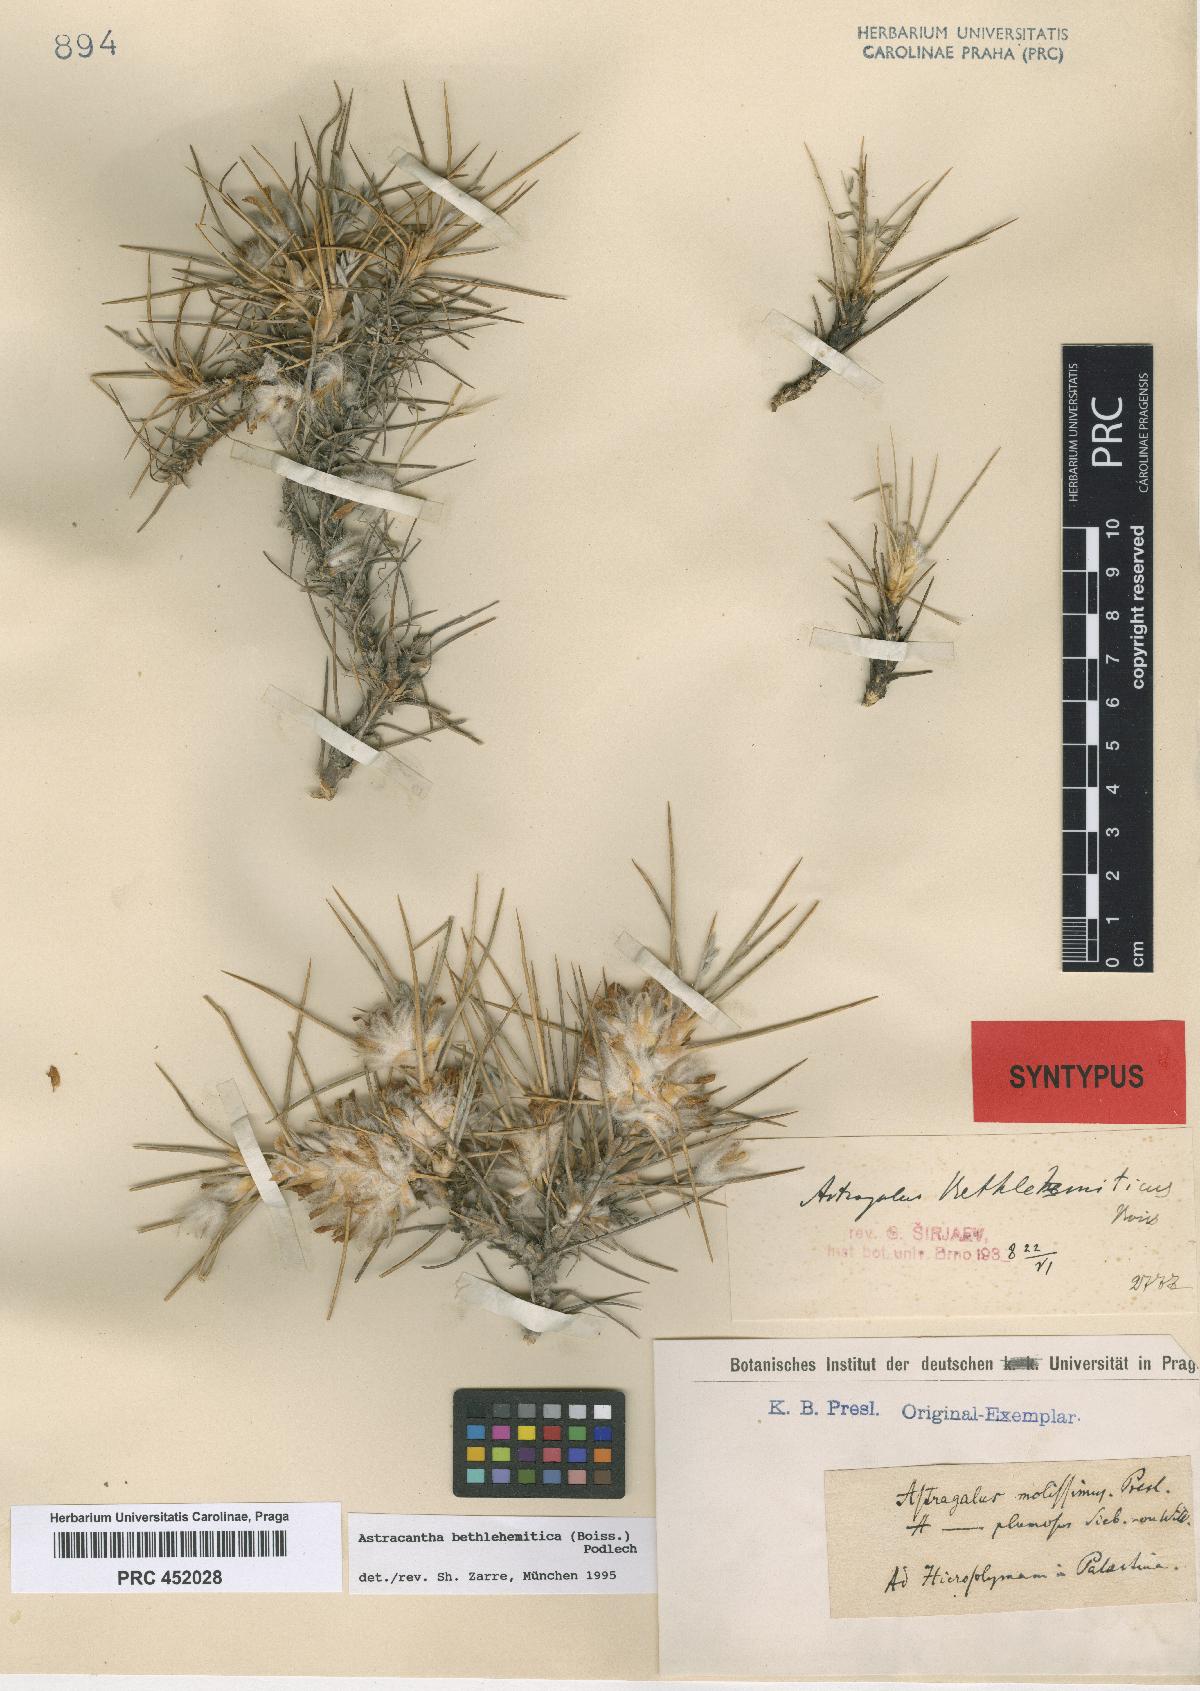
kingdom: Plantae
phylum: Tracheophyta
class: Magnoliopsida
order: Fabales
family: Fabaceae
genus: Astragalus
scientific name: Astragalus bethlehemiticus
